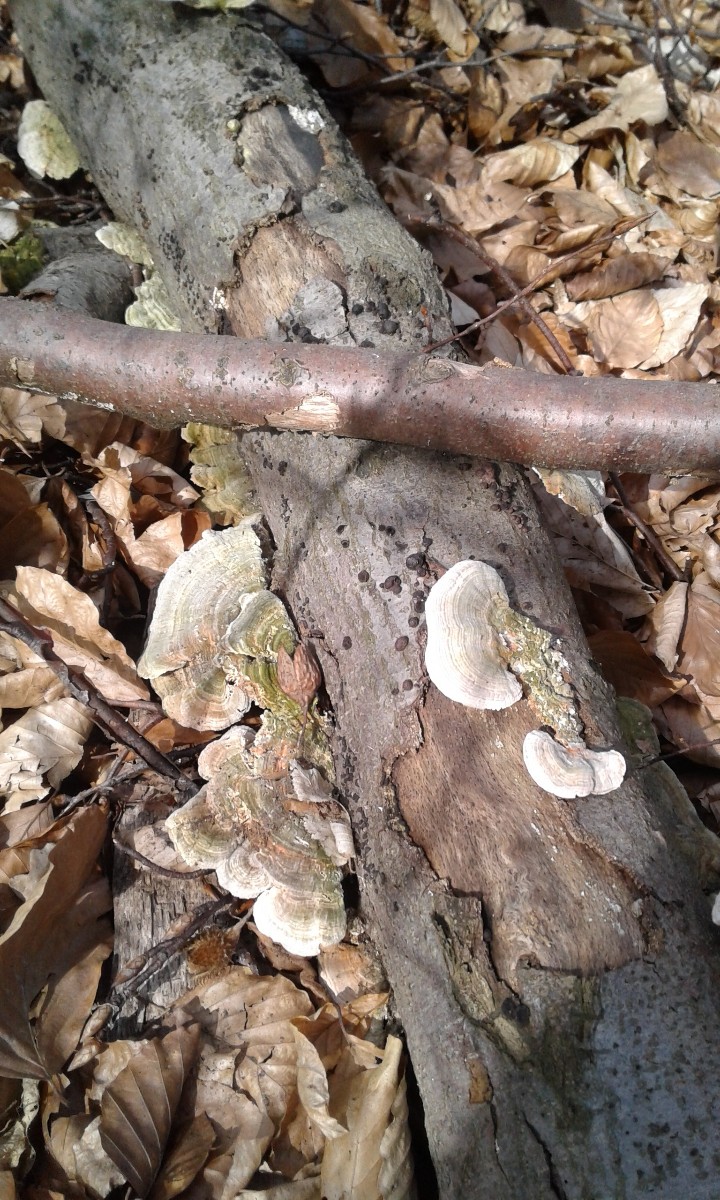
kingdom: Fungi
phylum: Basidiomycota
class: Agaricomycetes
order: Polyporales
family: Polyporaceae
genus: Lenzites
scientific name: Lenzites betulinus
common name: birke-læderporesvamp
